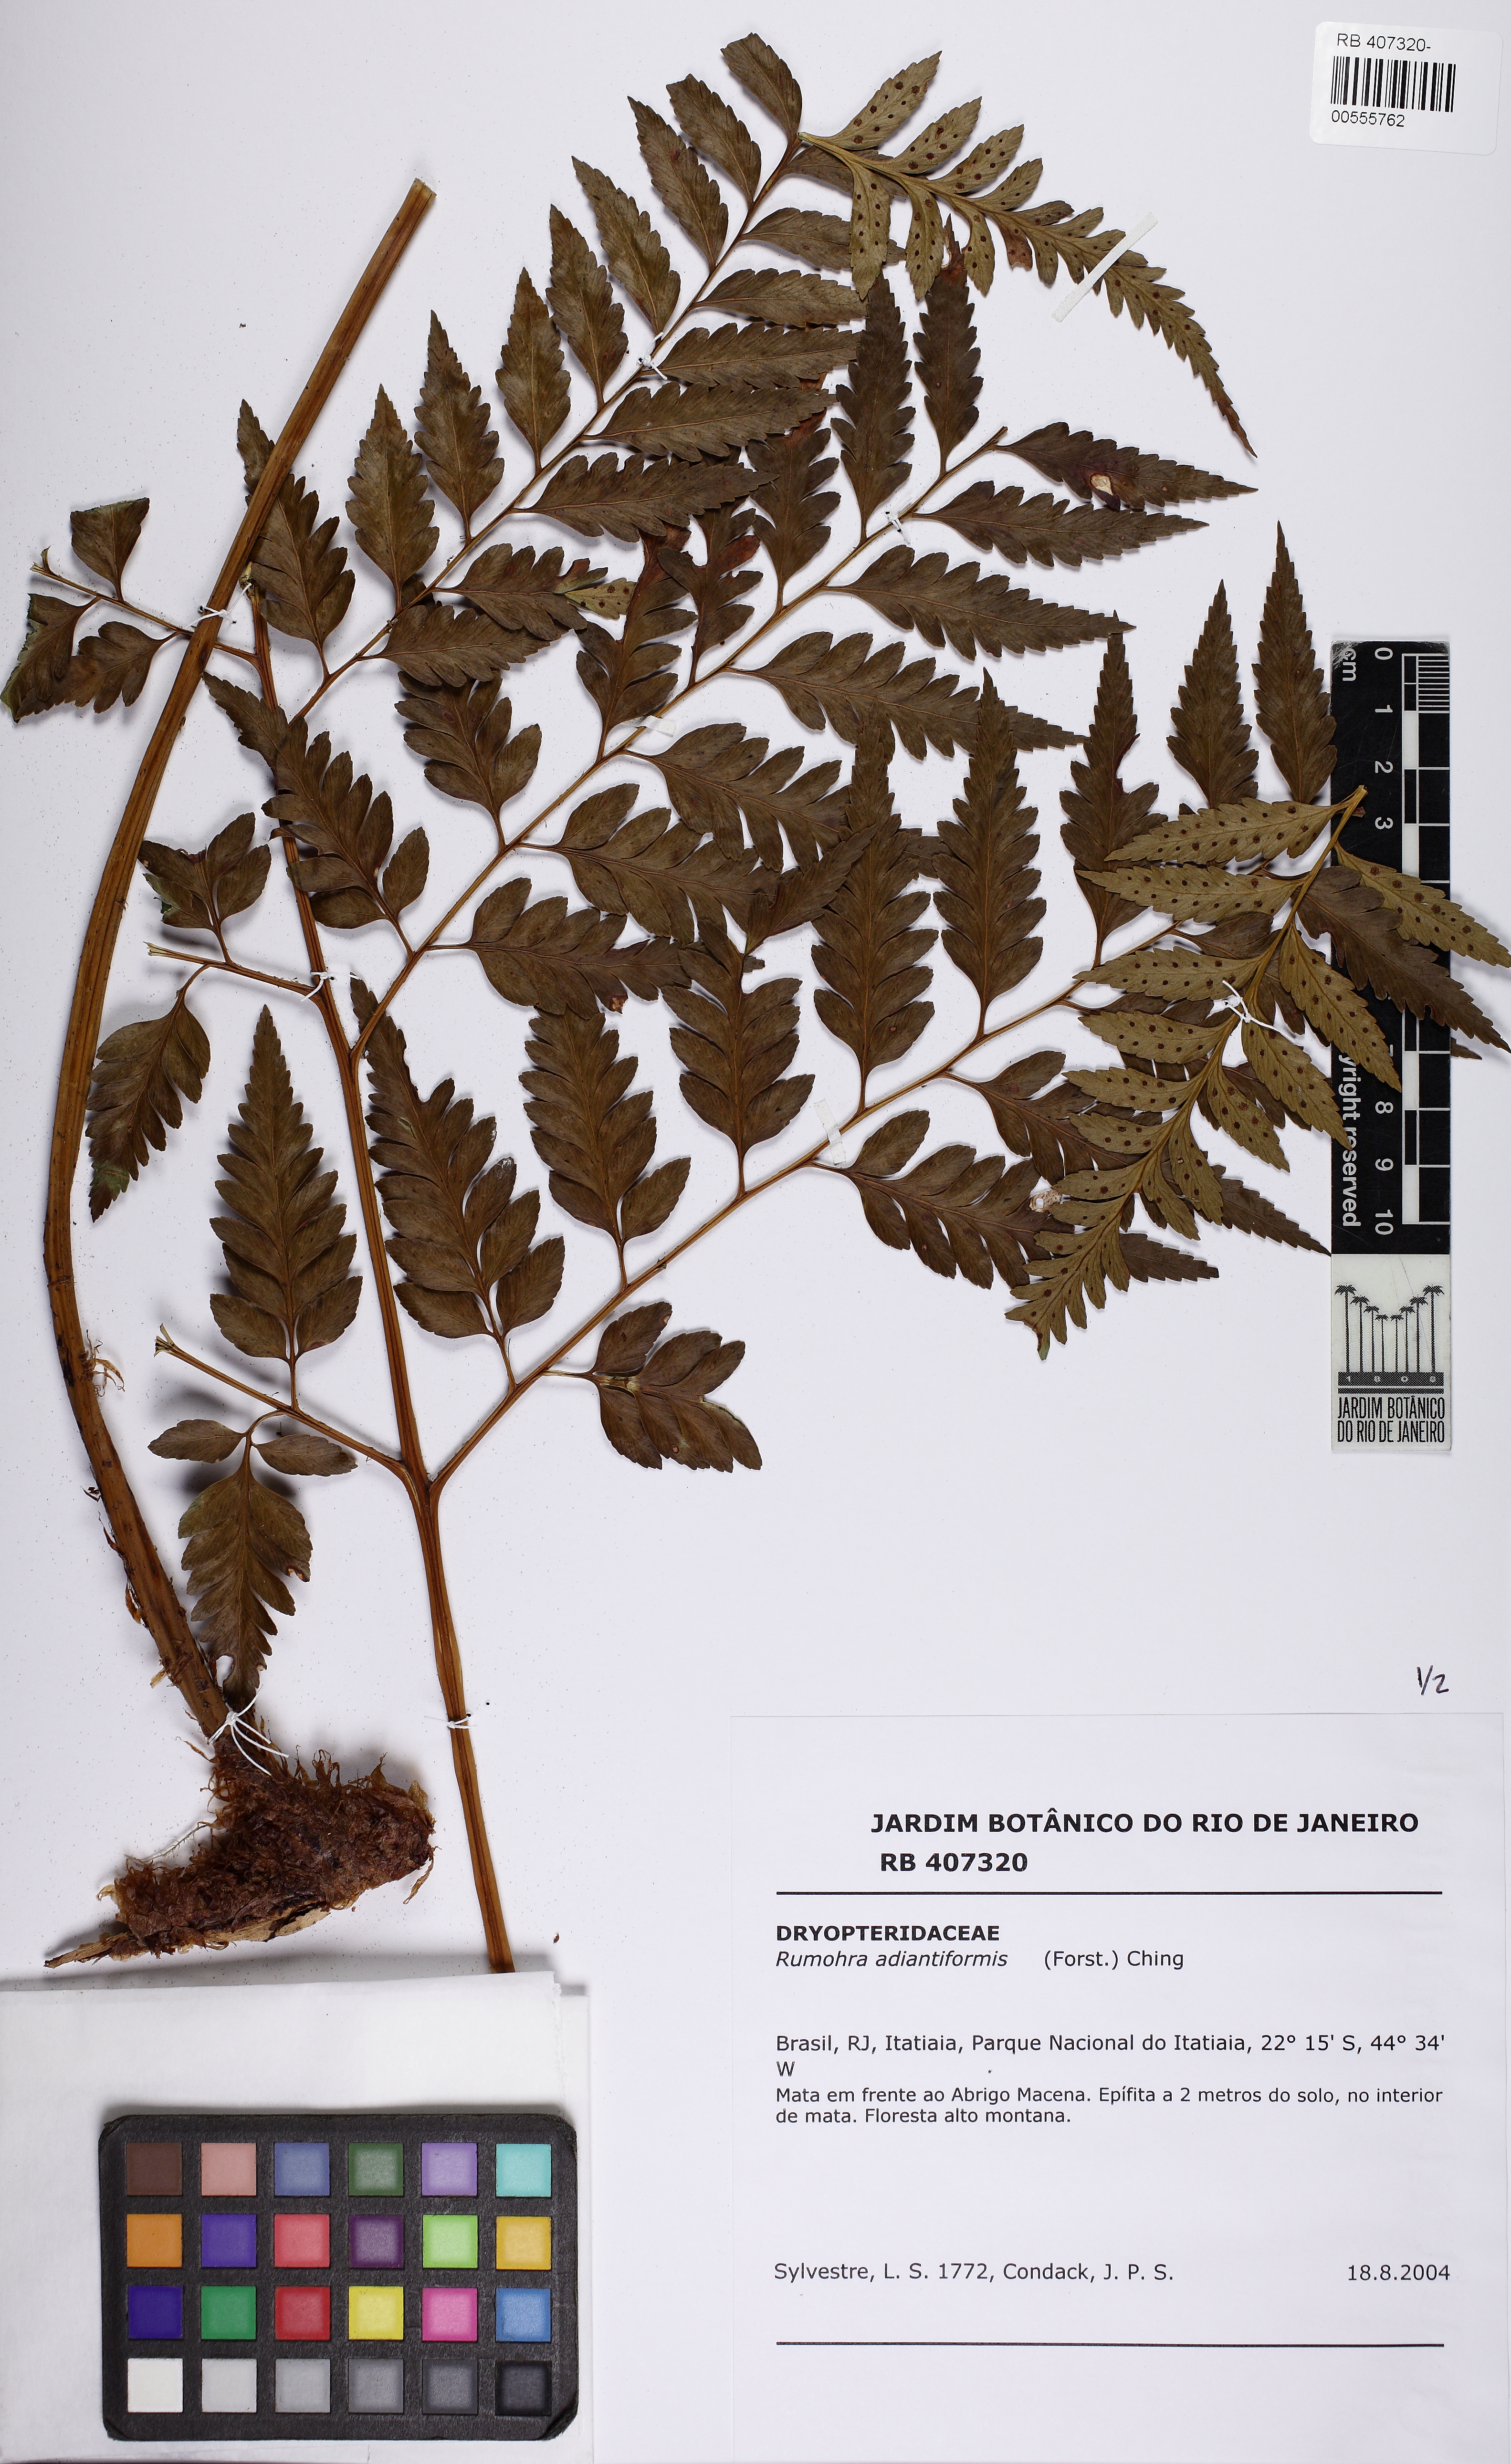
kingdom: Plantae
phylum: Tracheophyta
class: Polypodiopsida
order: Polypodiales
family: Dryopteridaceae
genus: Rumohra
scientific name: Rumohra adiantiformis
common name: Leather fern
